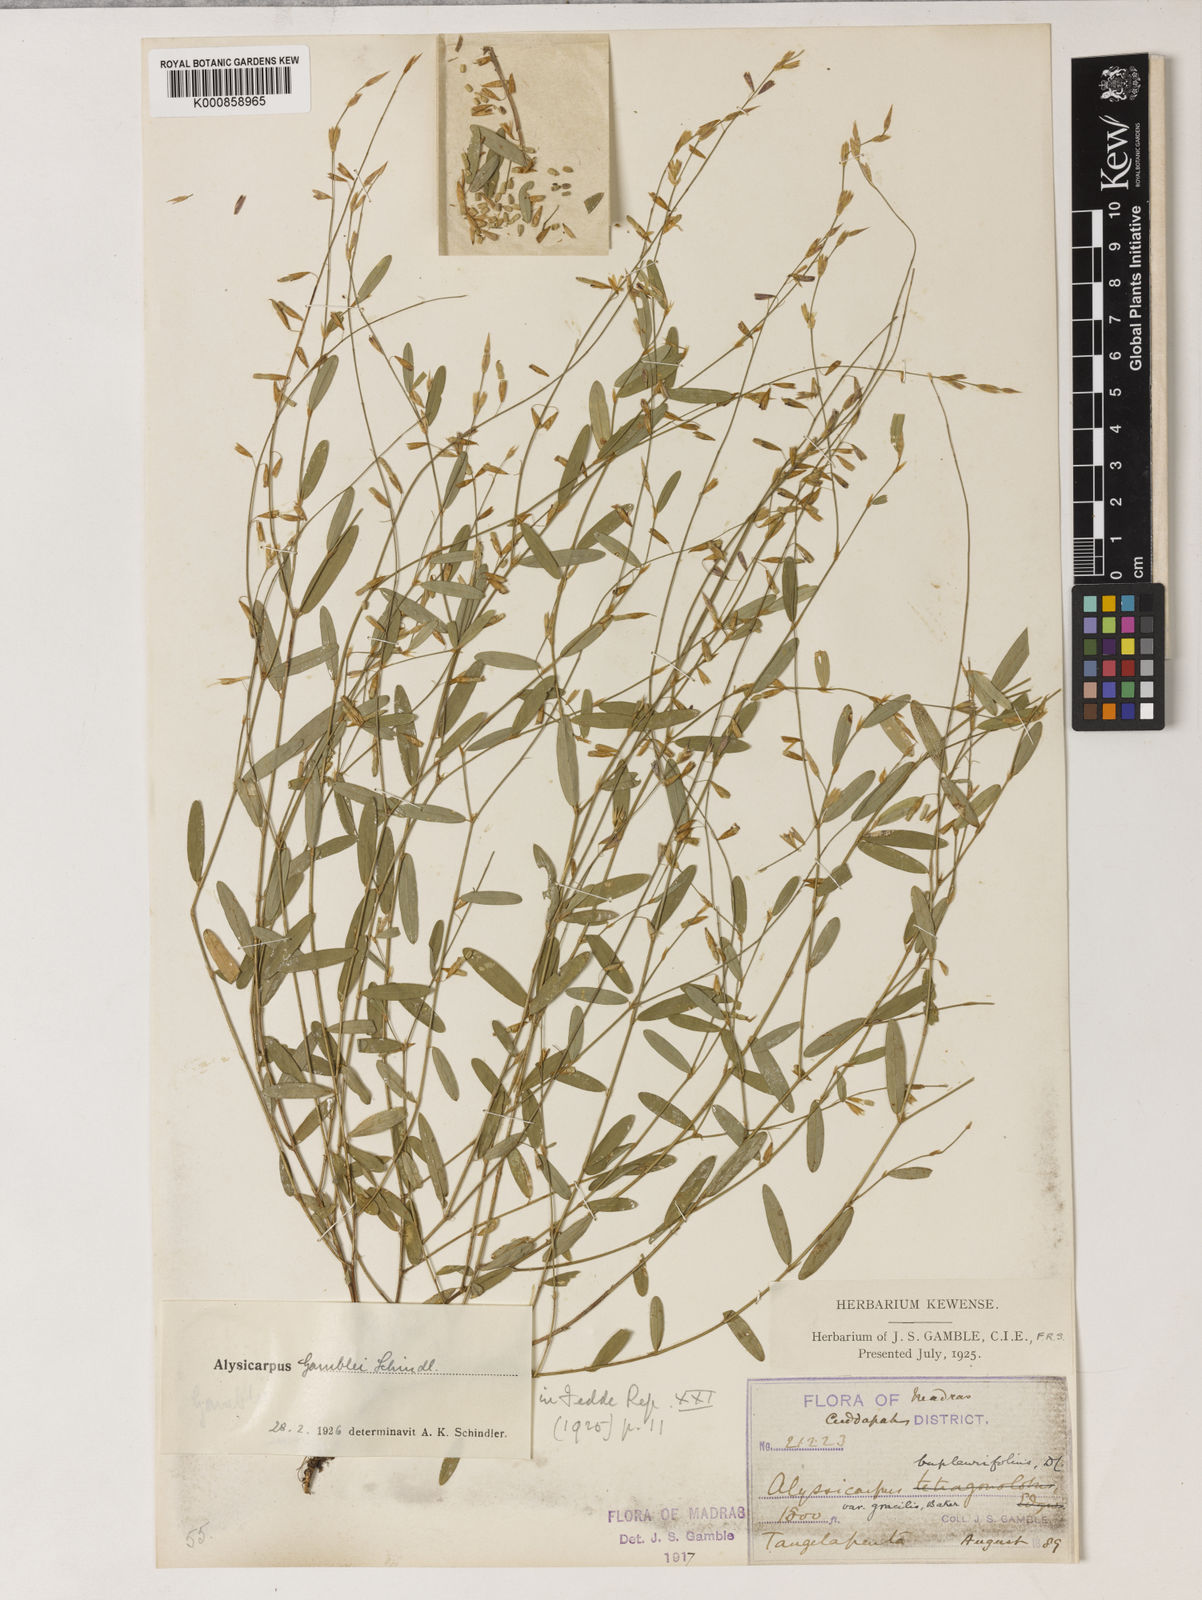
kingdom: Plantae
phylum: Tracheophyta
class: Magnoliopsida
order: Fabales
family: Fabaceae
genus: Alysicarpus
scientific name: Alysicarpus gamblei
